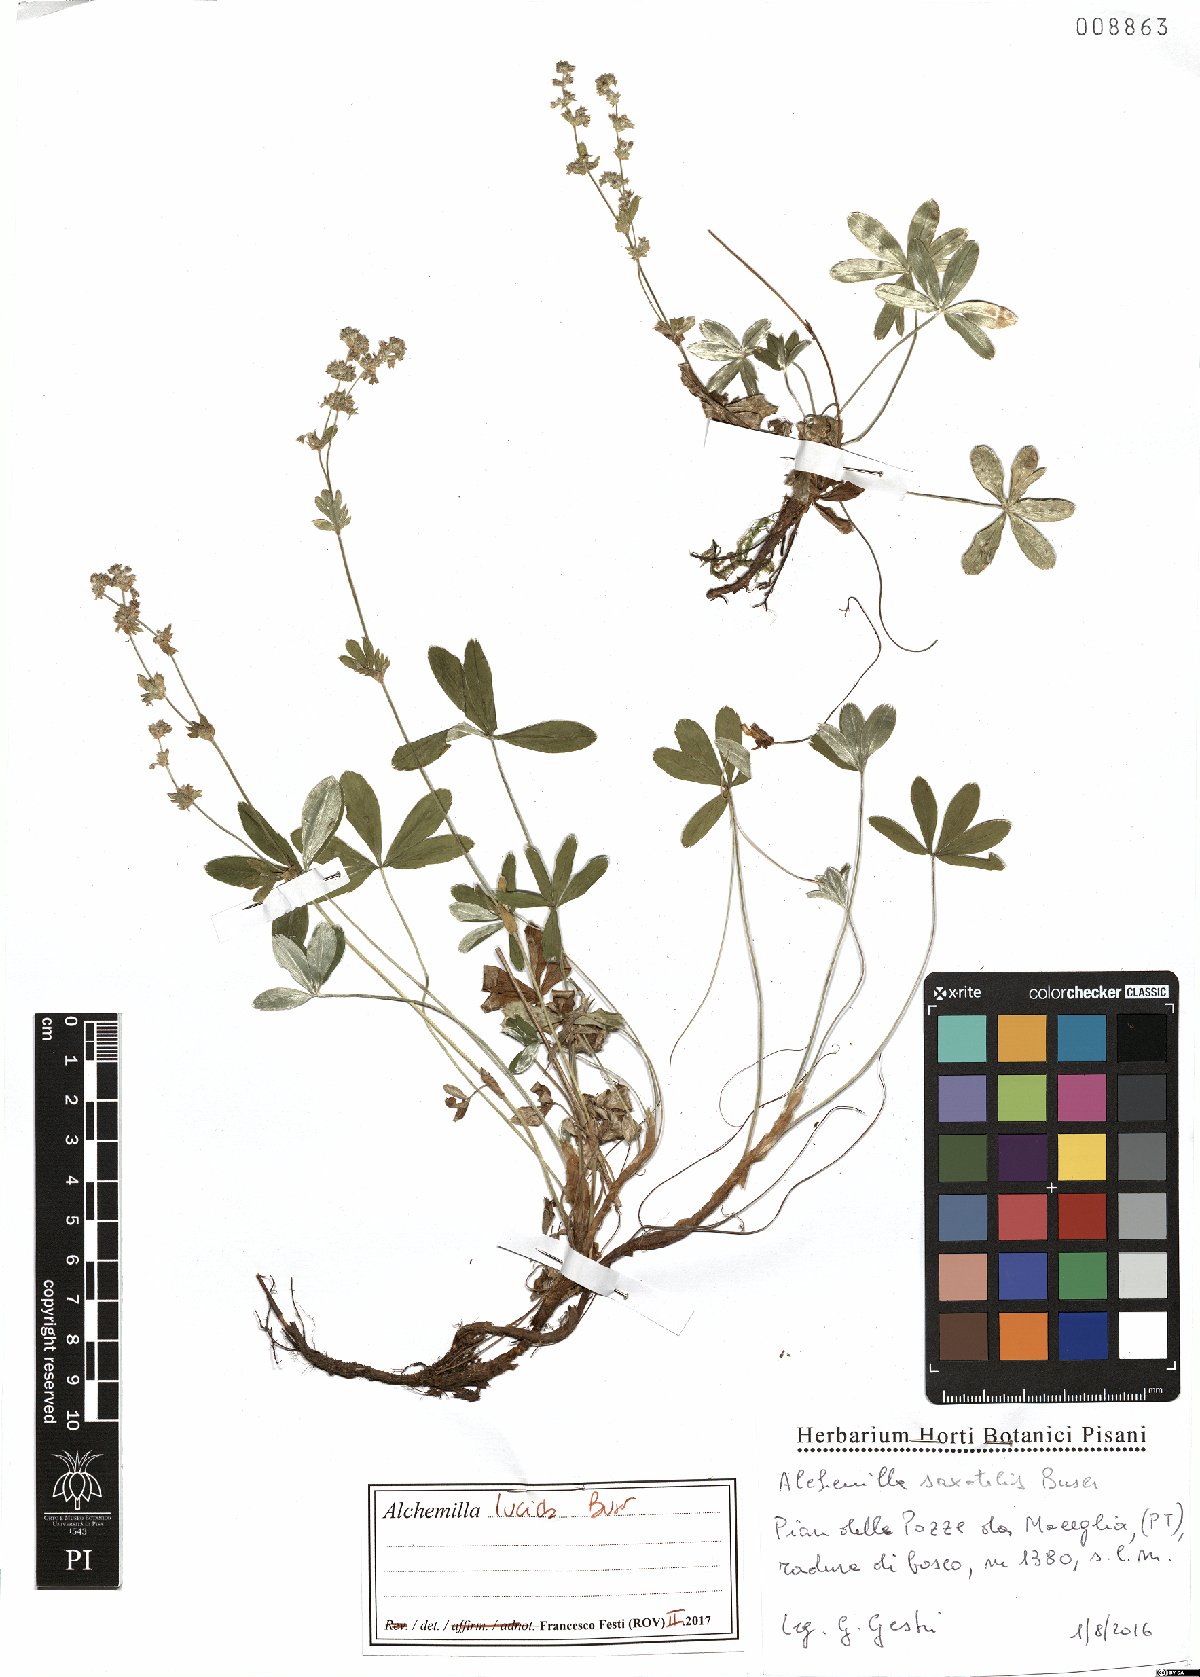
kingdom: Plantae
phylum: Tracheophyta
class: Magnoliopsida
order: Rosales
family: Rosaceae
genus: Alchemilla
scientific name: Alchemilla lucida
